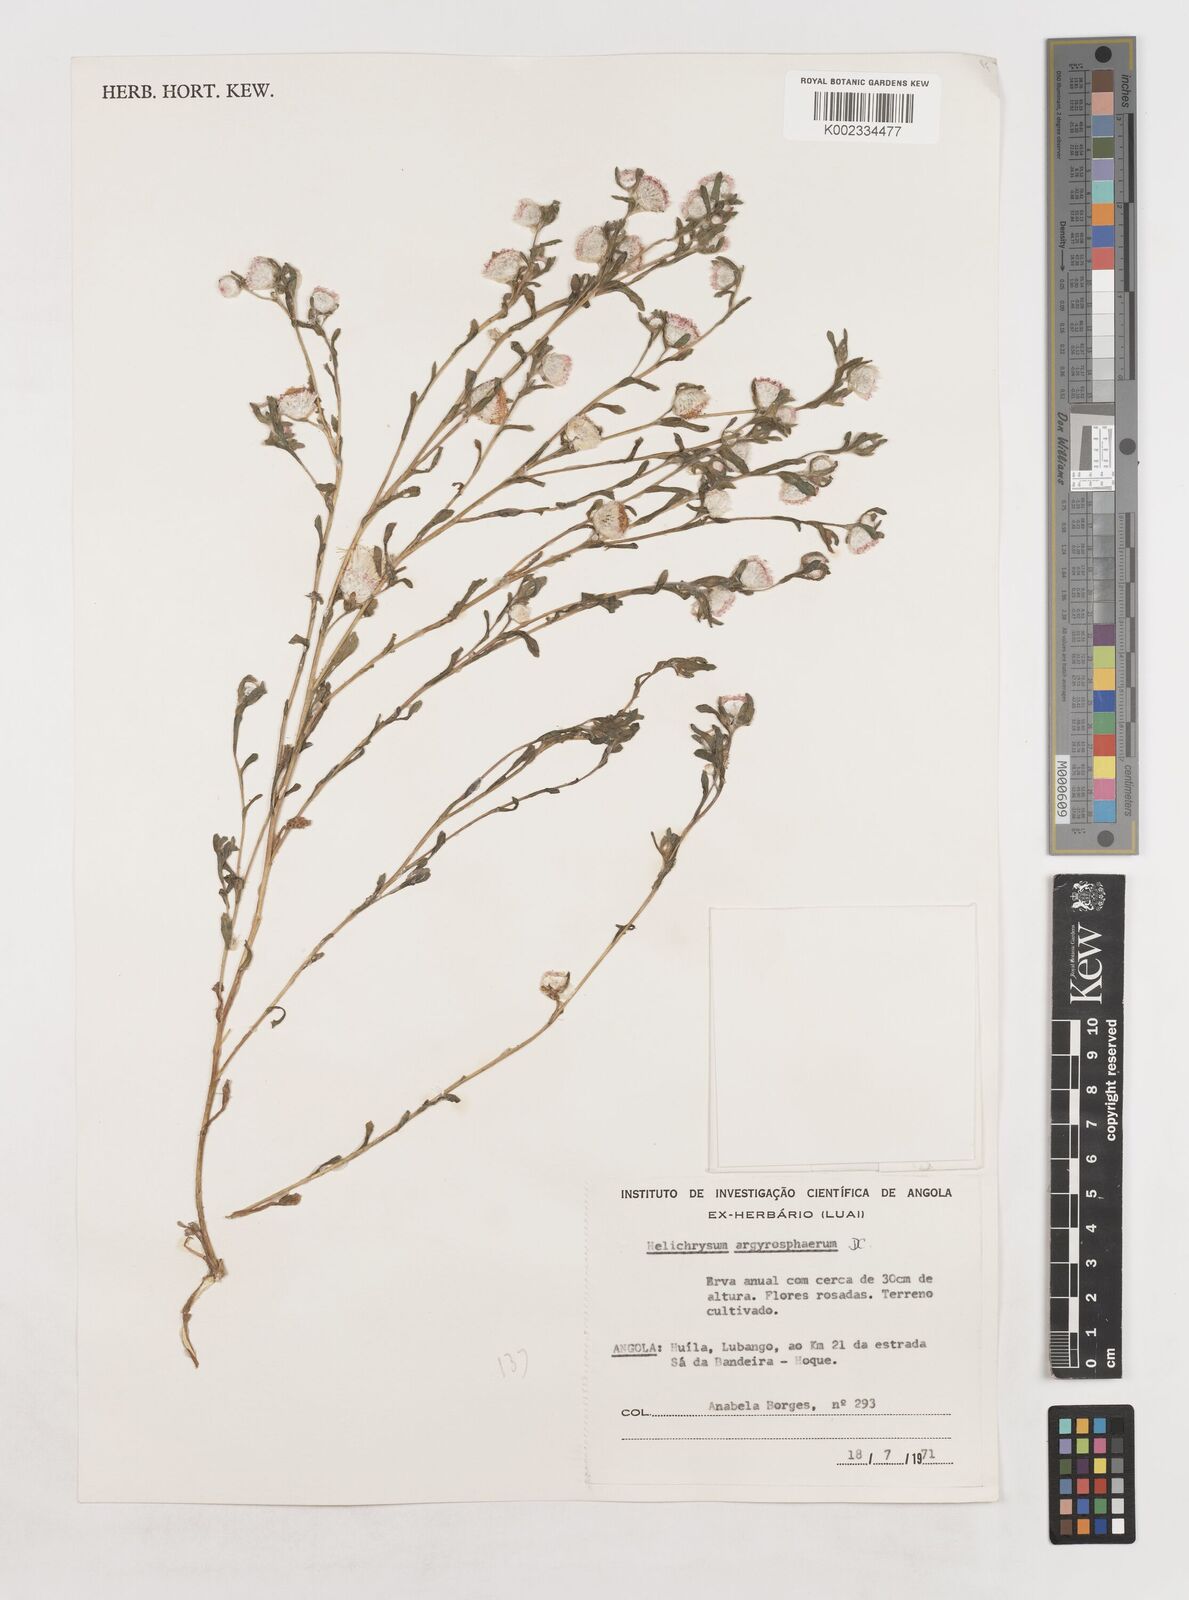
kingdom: Plantae
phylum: Tracheophyta
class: Magnoliopsida
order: Asterales
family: Asteraceae
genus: Helichrysum
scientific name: Helichrysum argyrosphaerum
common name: Wild everlasting
